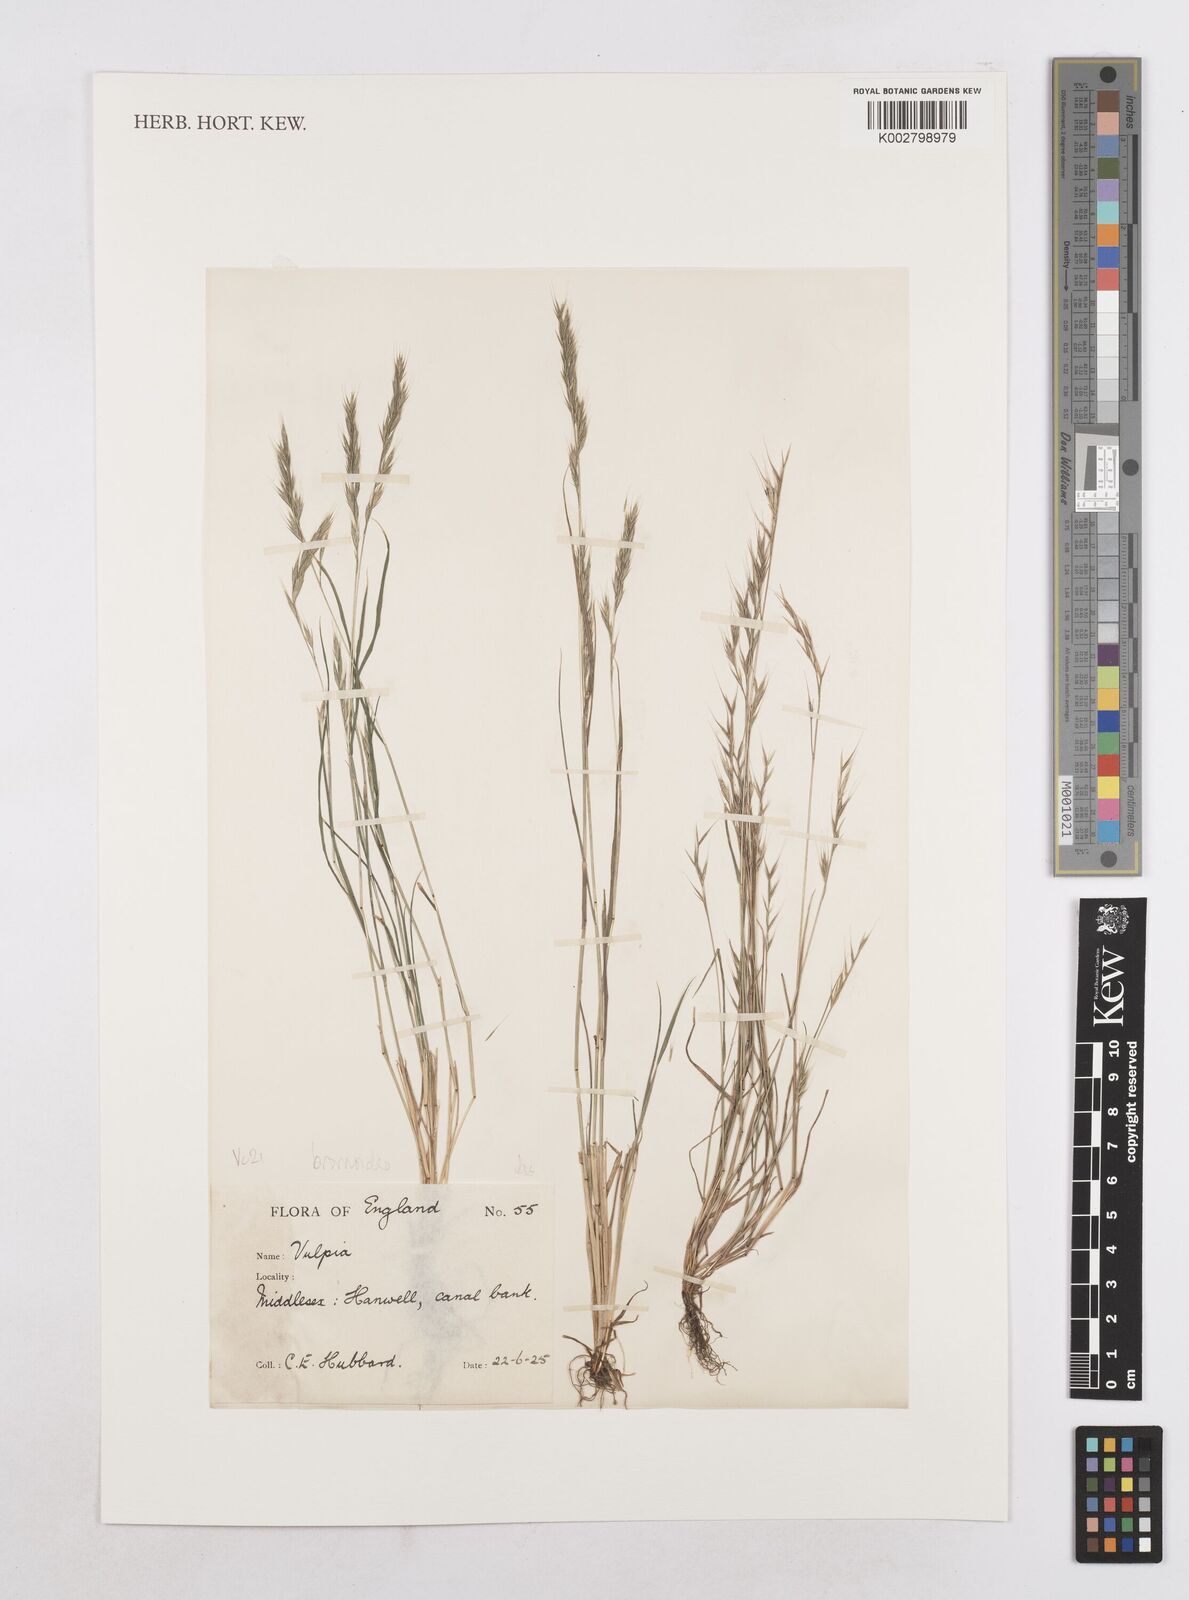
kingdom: Plantae
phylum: Tracheophyta
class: Liliopsida
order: Poales
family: Poaceae
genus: Festuca
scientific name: Festuca bromoides
